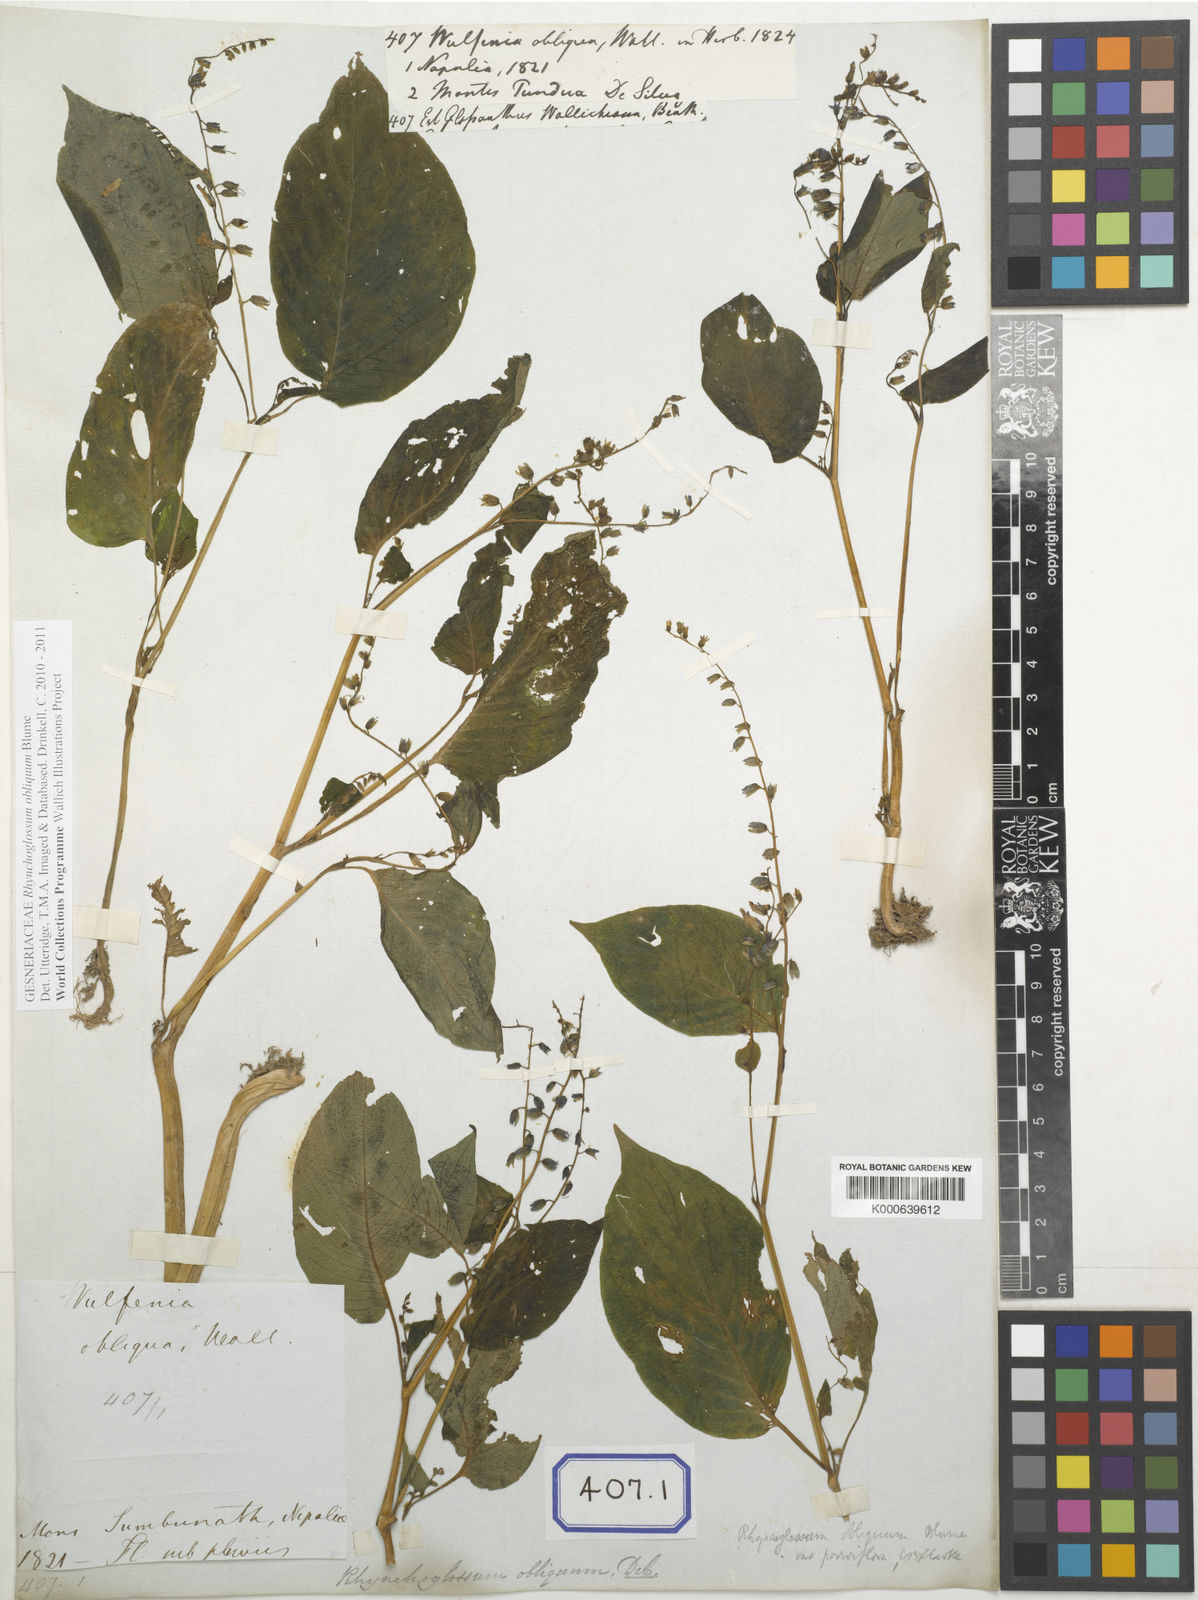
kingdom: Plantae
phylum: Tracheophyta
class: Magnoliopsida
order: Lamiales
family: Gesneriaceae
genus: Rhynchoglossum
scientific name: Rhynchoglossum
